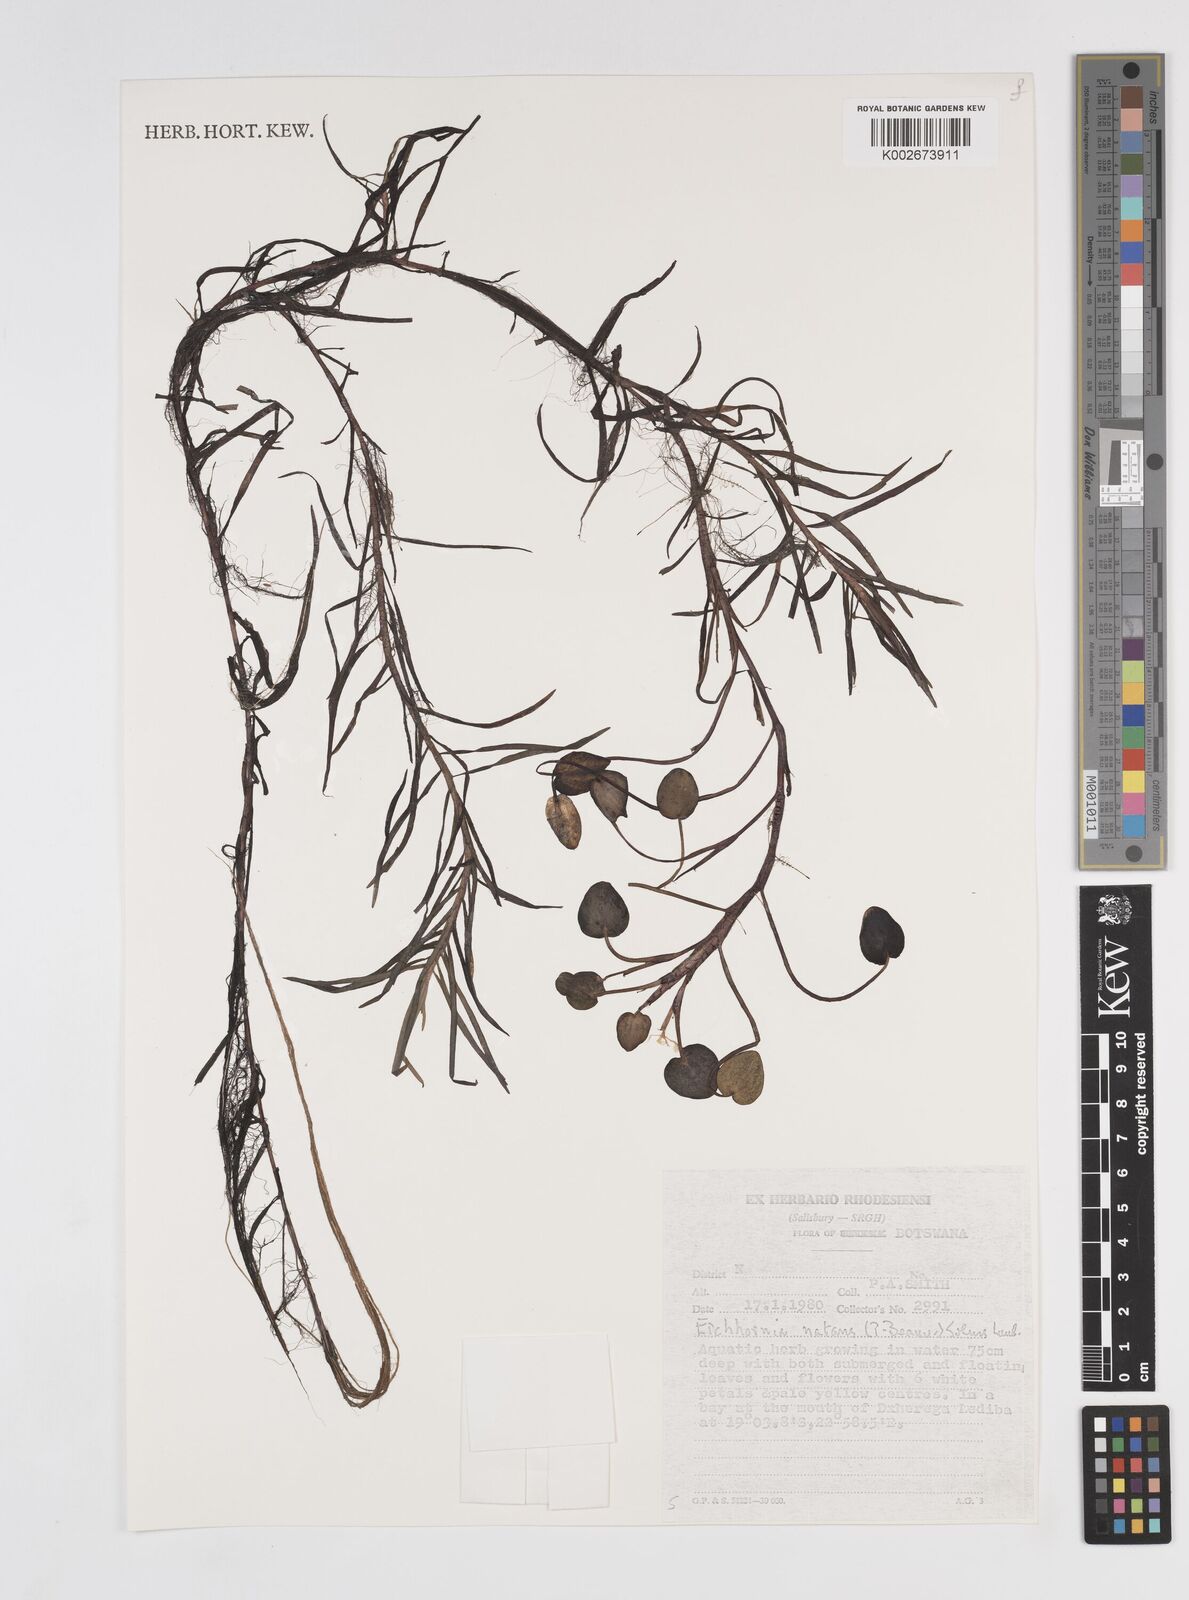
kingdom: Plantae
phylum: Tracheophyta
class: Liliopsida
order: Commelinales
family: Pontederiaceae
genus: Pontederia
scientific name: Pontederia natans
